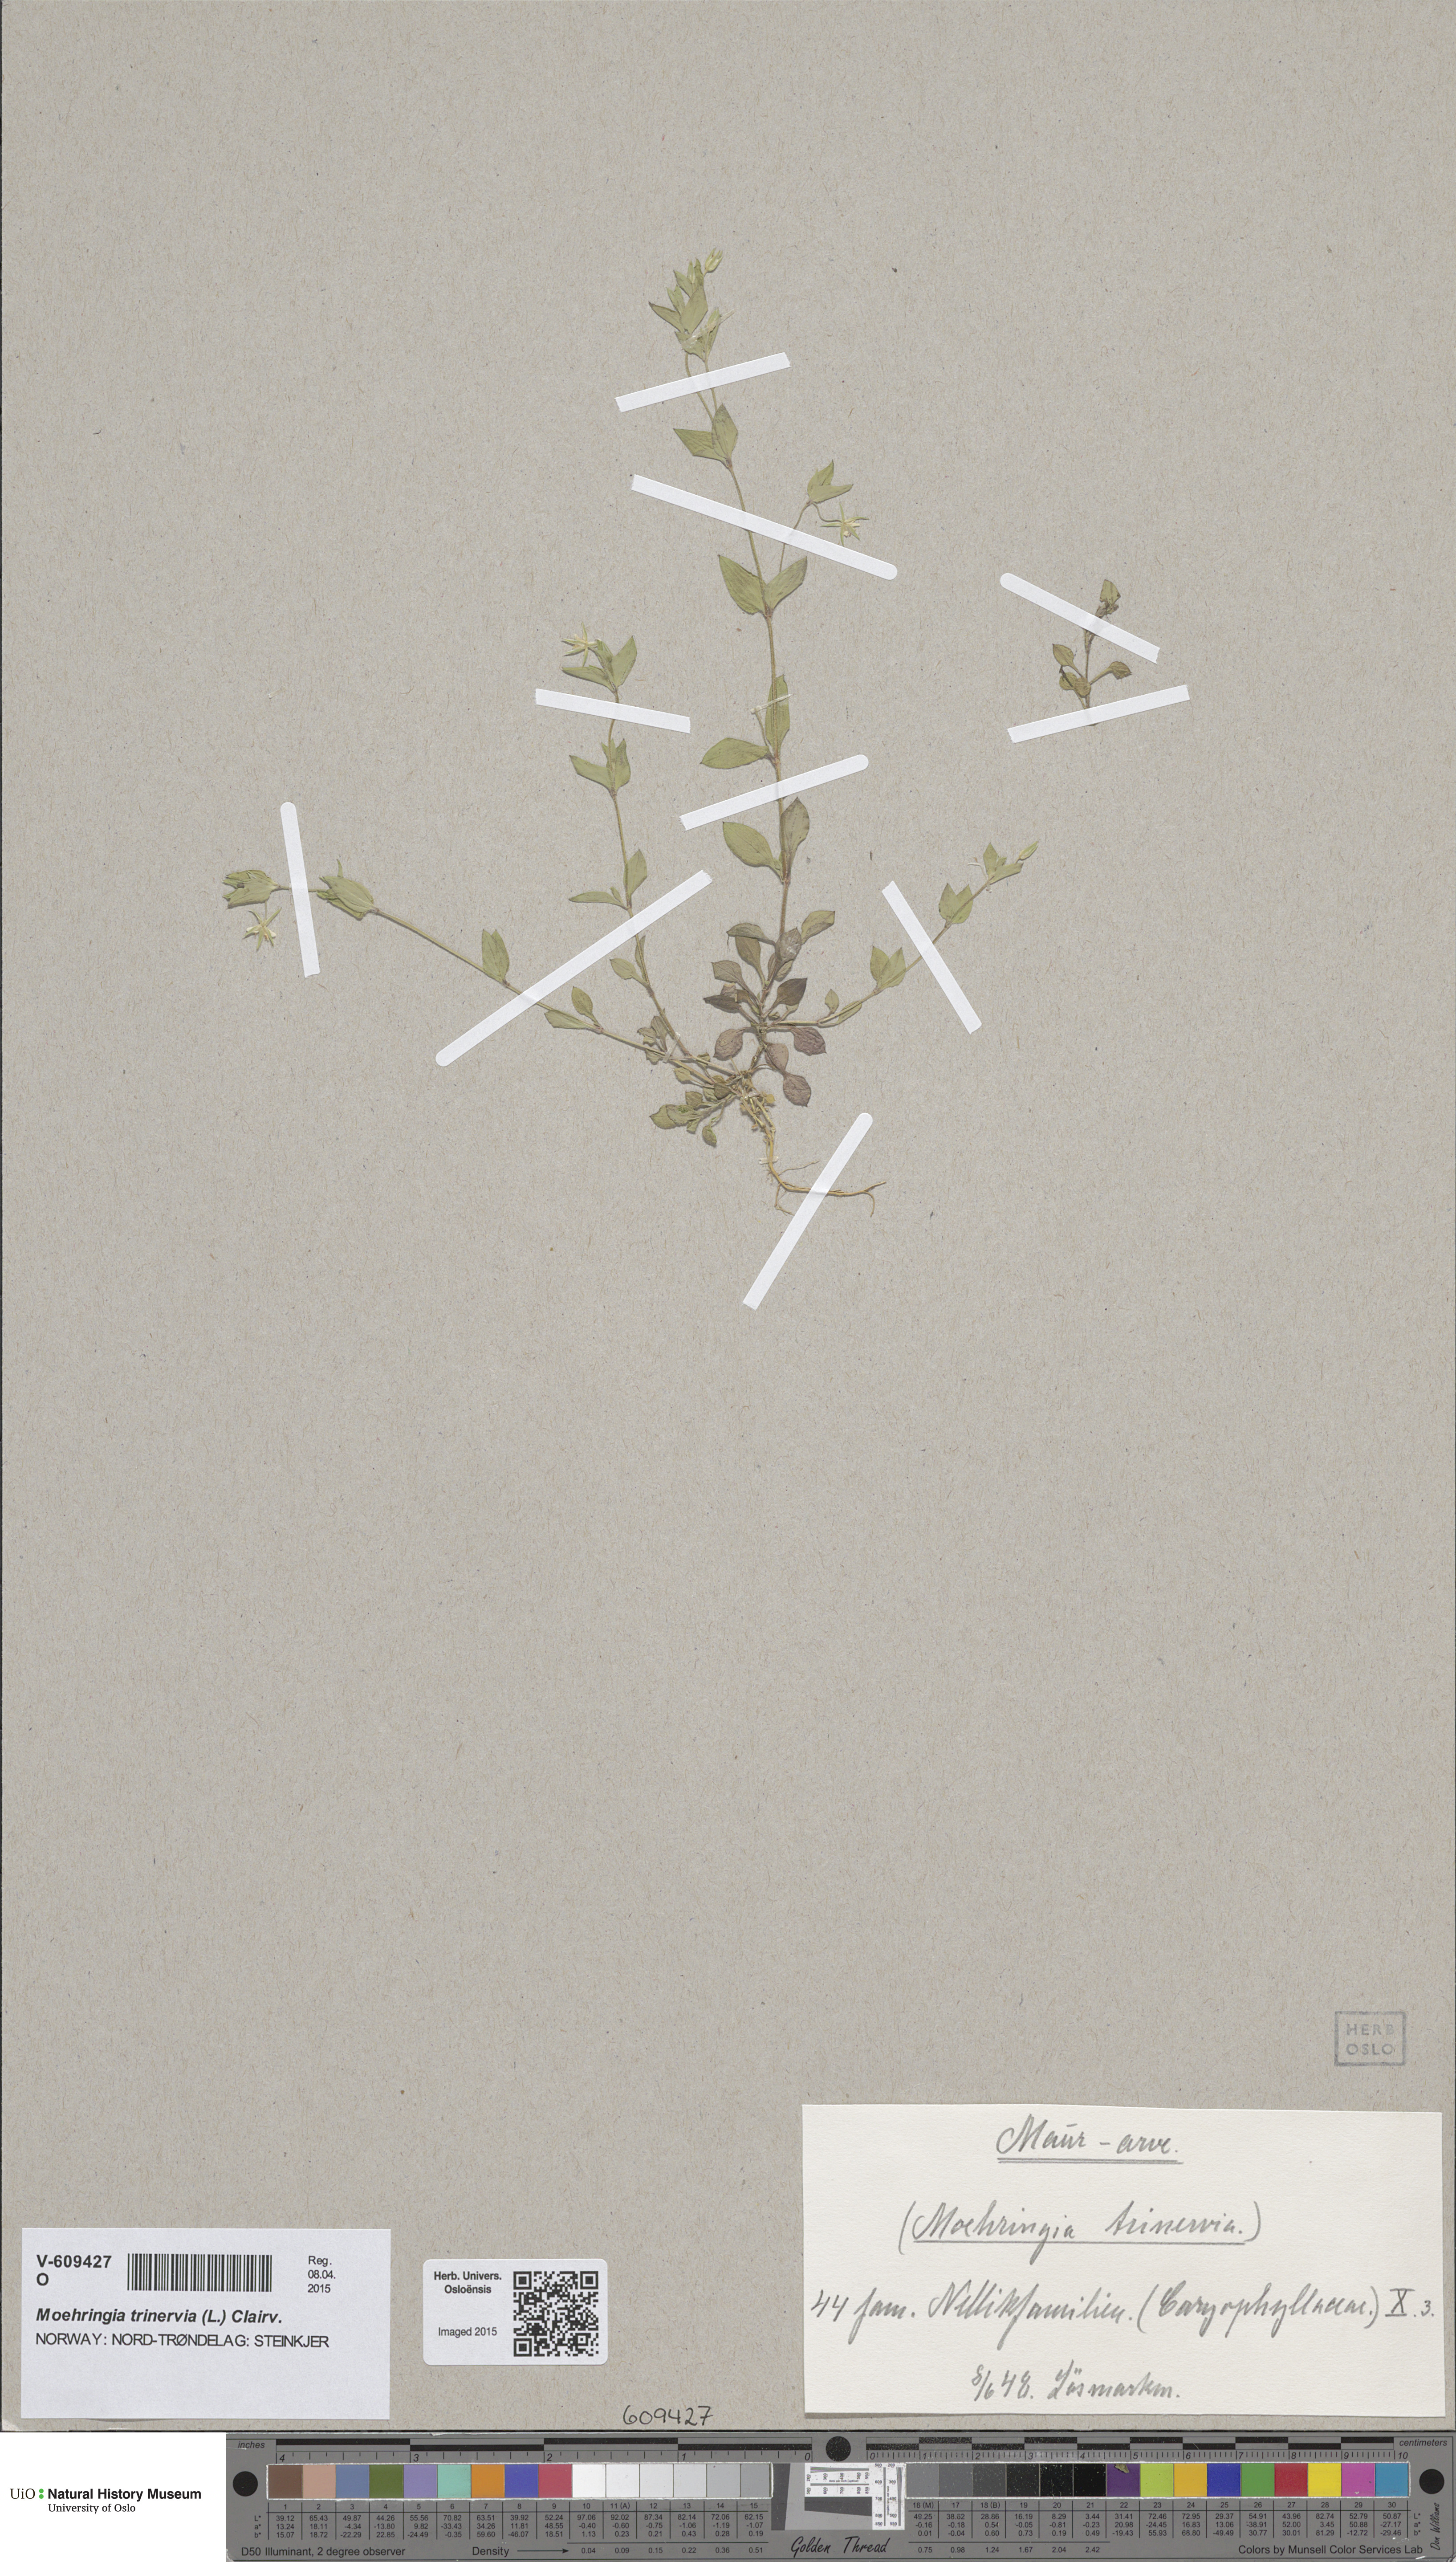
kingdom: Plantae
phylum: Tracheophyta
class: Magnoliopsida
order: Caryophyllales
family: Caryophyllaceae
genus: Moehringia
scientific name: Moehringia trinervia
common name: Three-nerved sandwort
